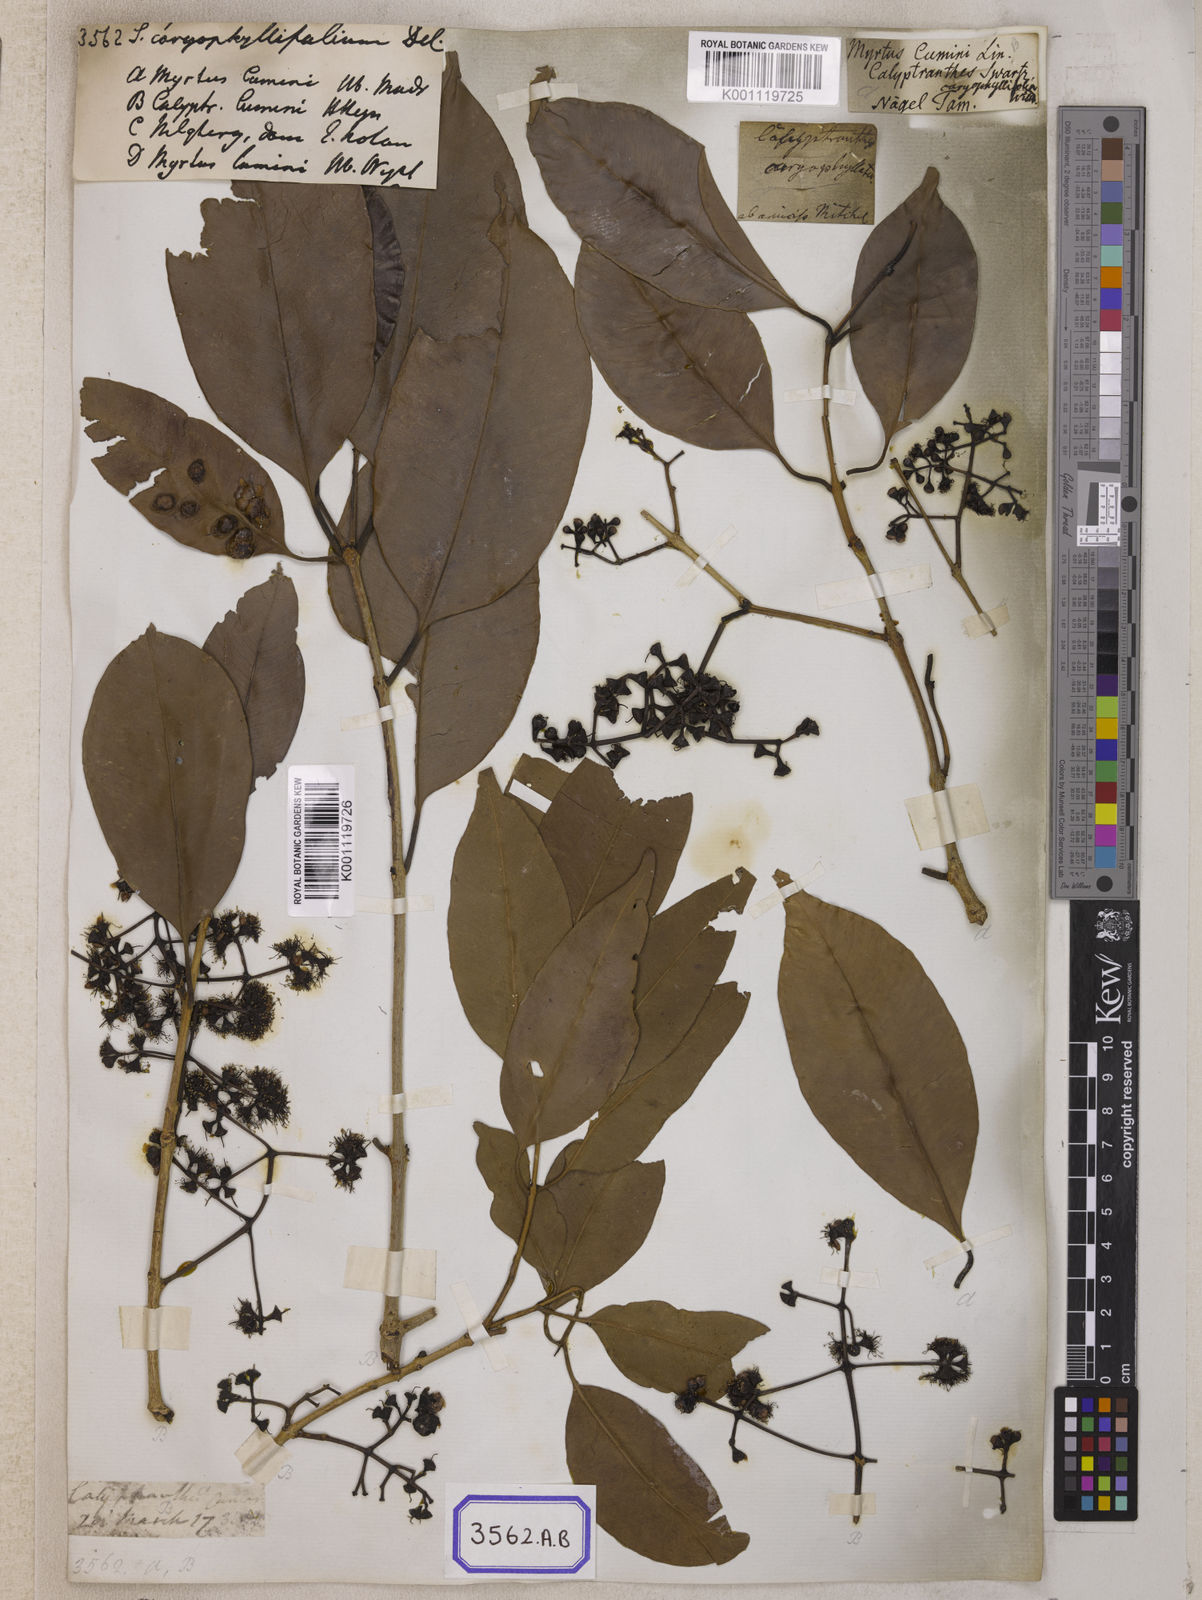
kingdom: Plantae
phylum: Tracheophyta
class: Magnoliopsida
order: Myrtales
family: Myrtaceae
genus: Syzygium
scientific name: Syzygium cumini
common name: Java plum
